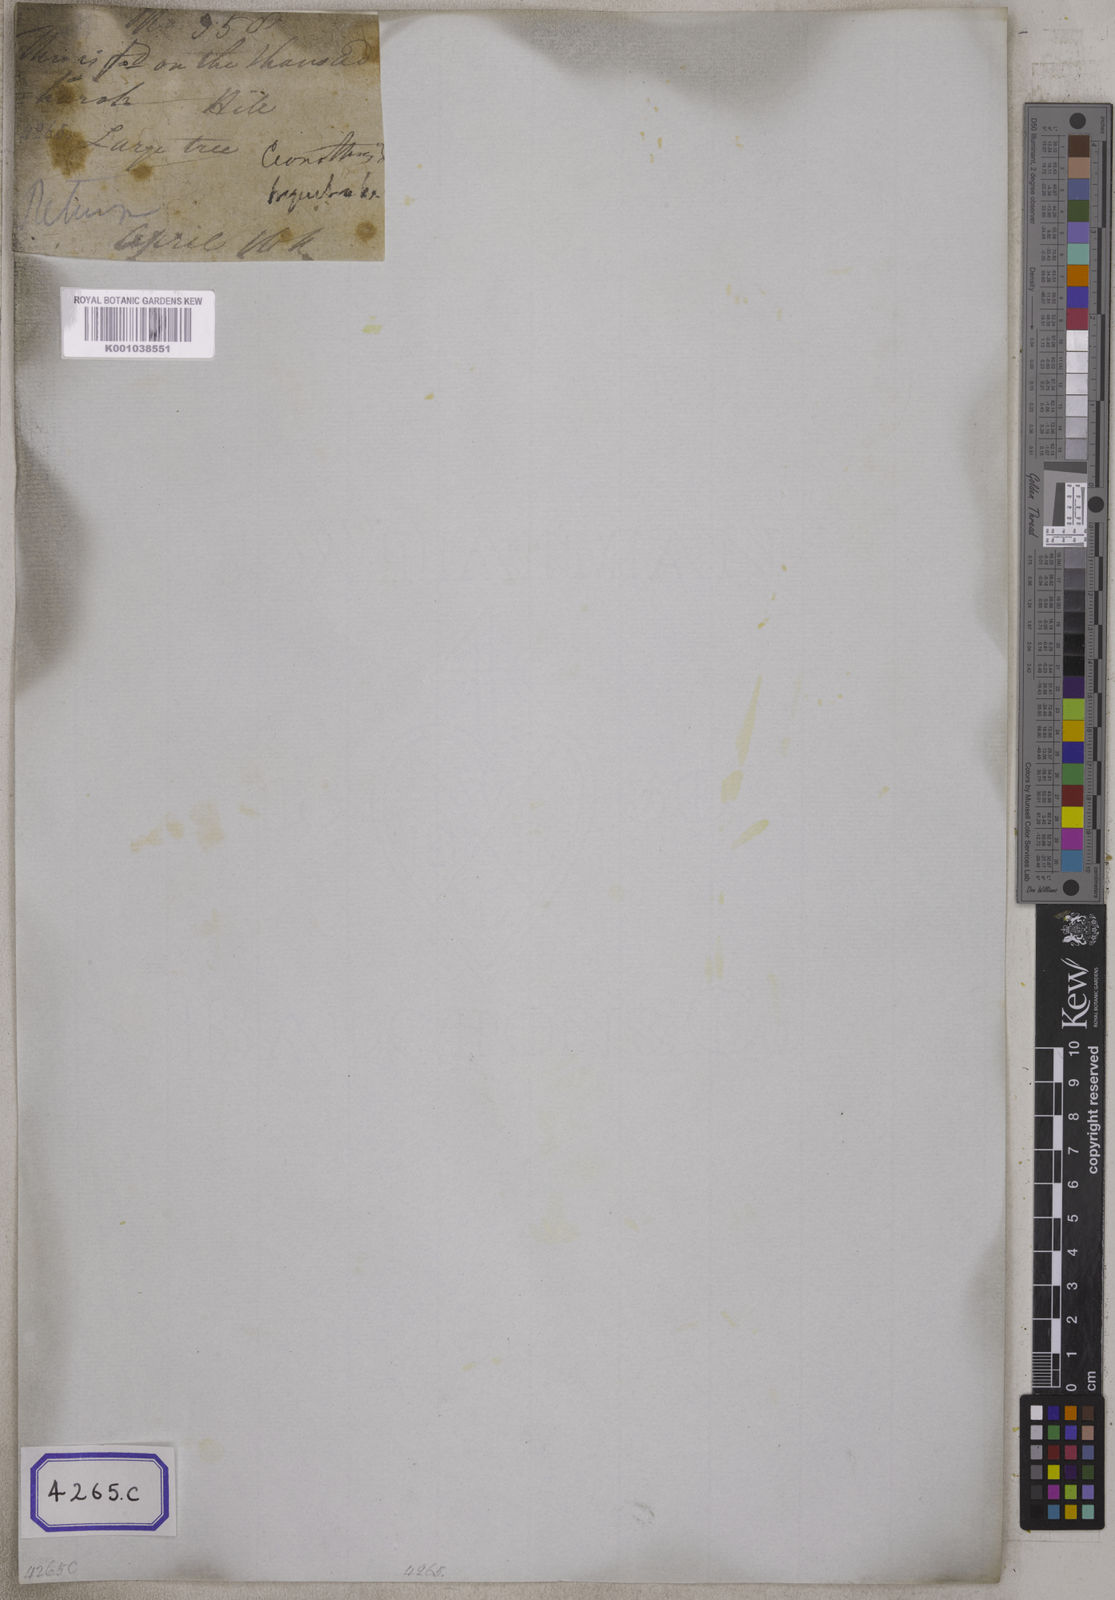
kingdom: Plantae
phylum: Tracheophyta
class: Magnoliopsida
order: Rosales
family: Rhamnaceae
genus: Rhamnus
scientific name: Rhamnus triquetra
